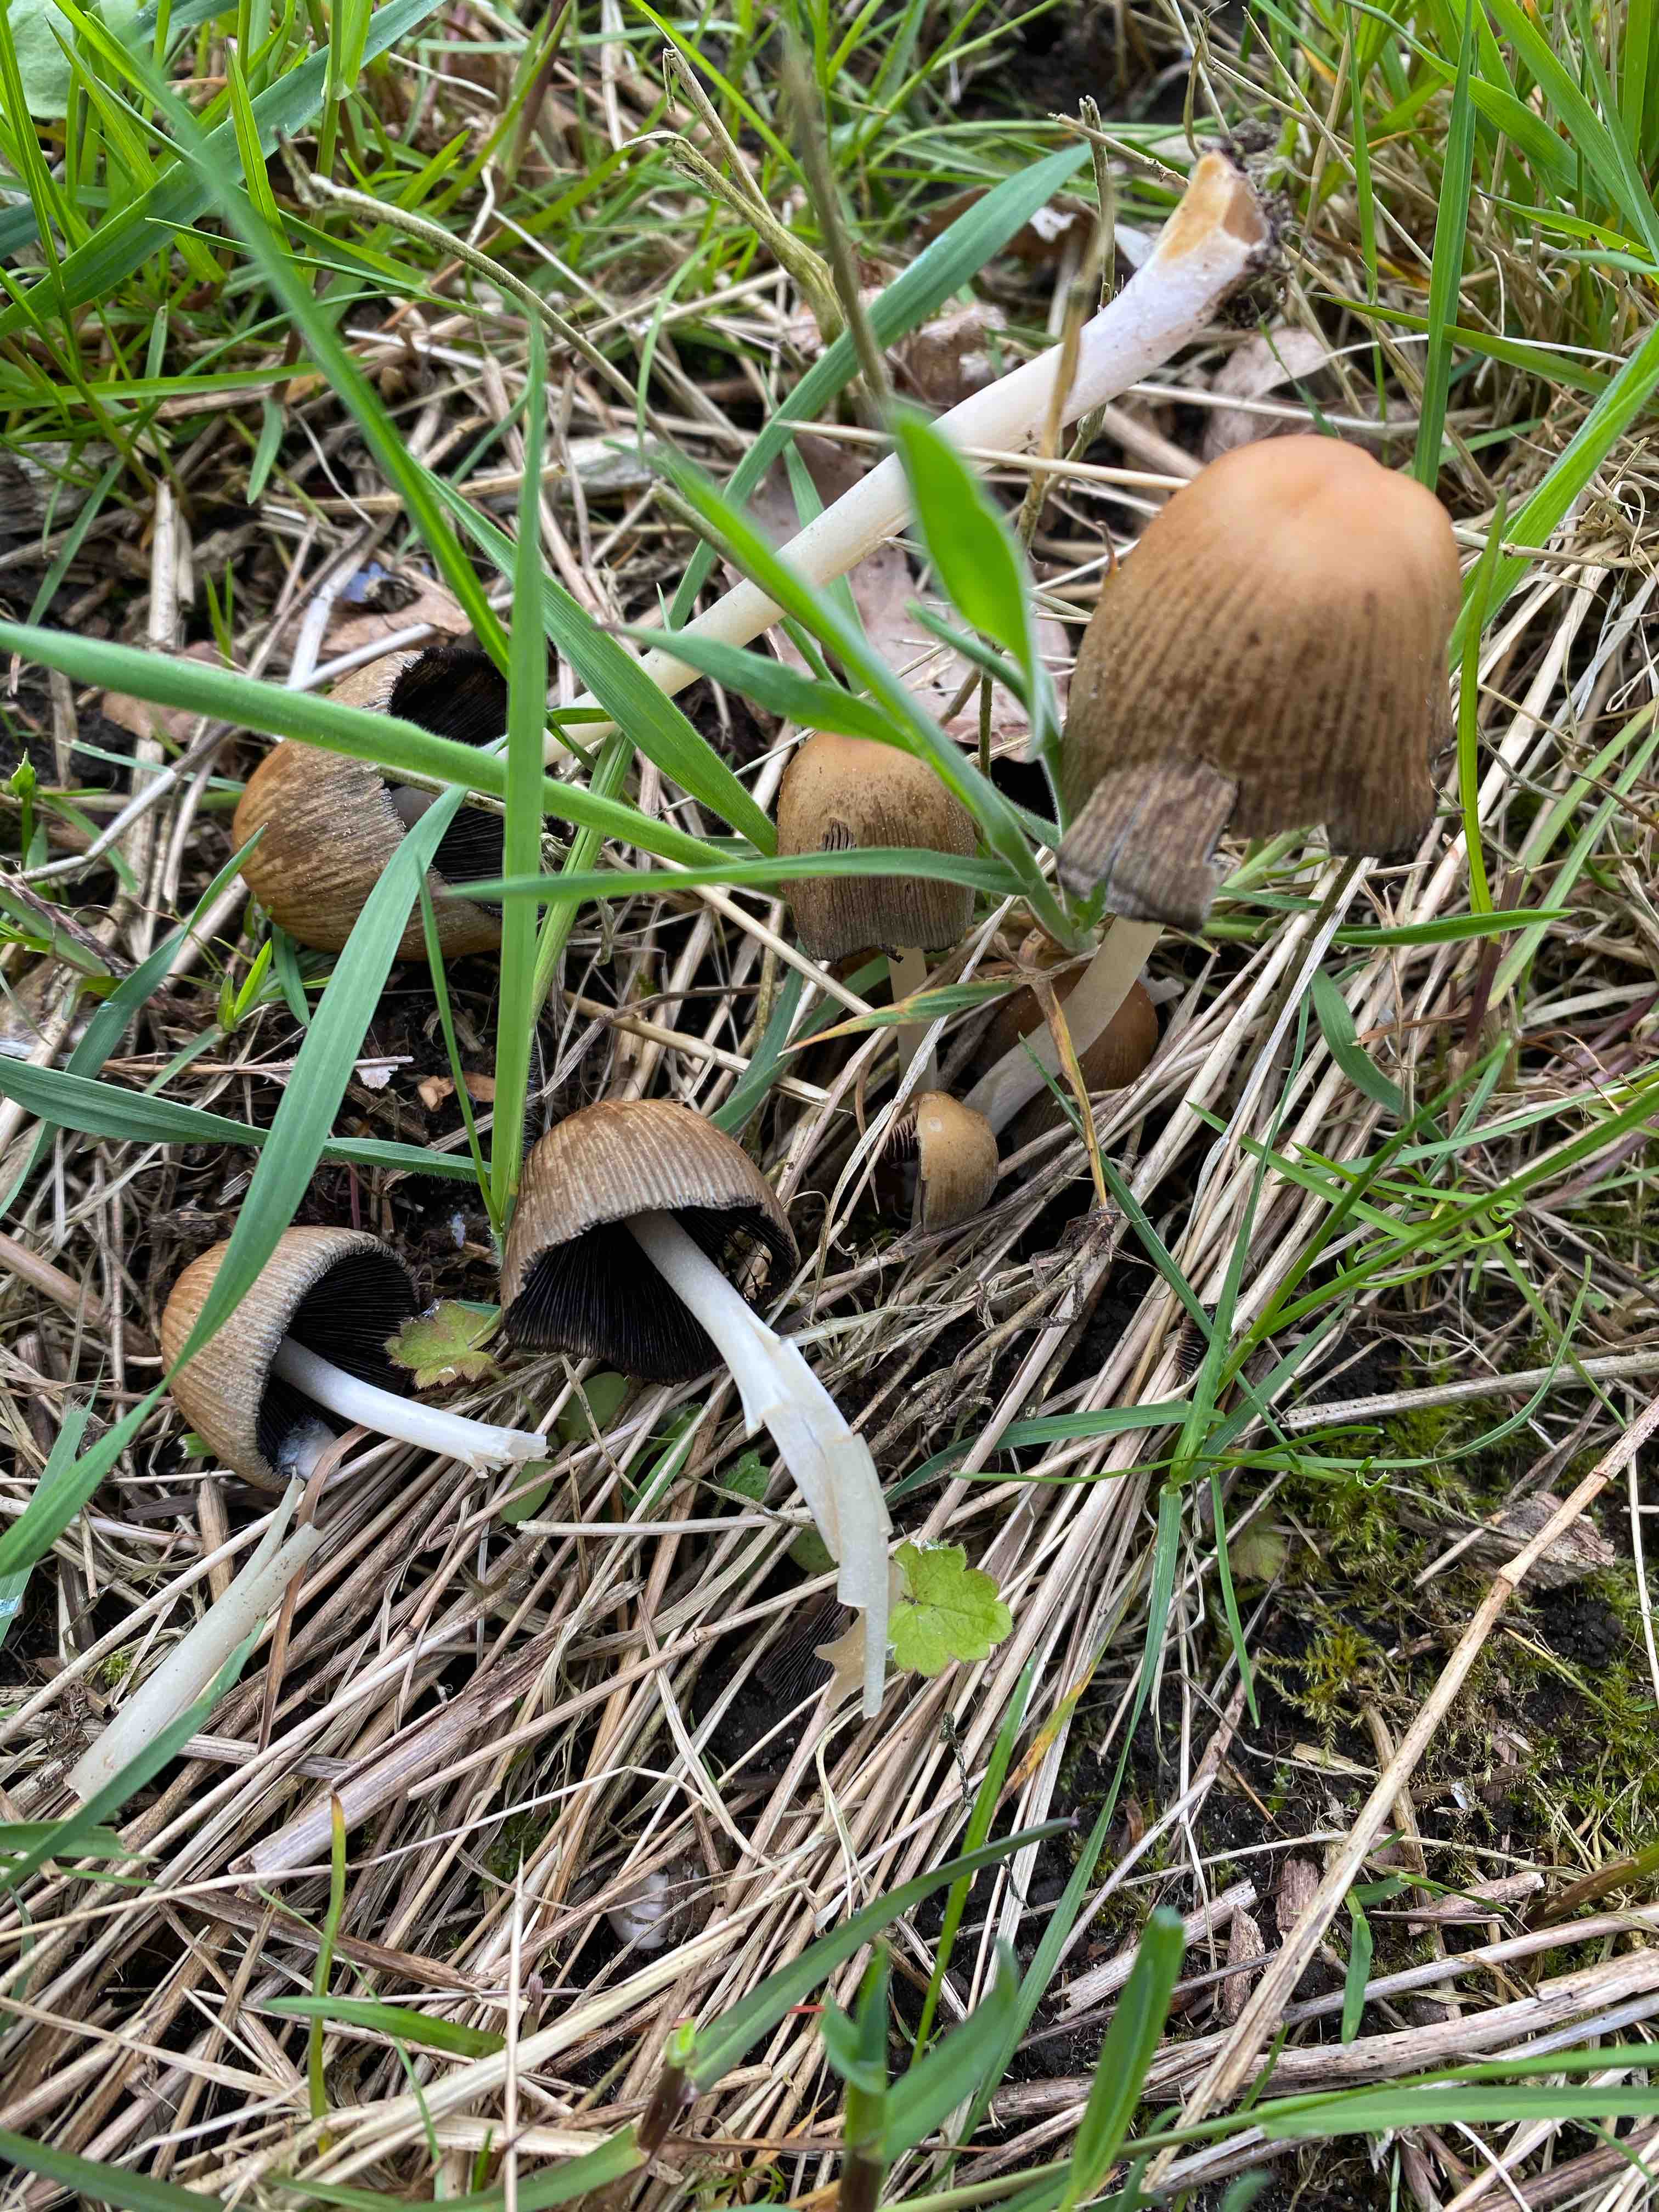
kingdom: Fungi
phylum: Basidiomycota
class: Agaricomycetes
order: Agaricales
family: Psathyrellaceae
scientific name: Psathyrellaceae
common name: mørkhatfamilien
